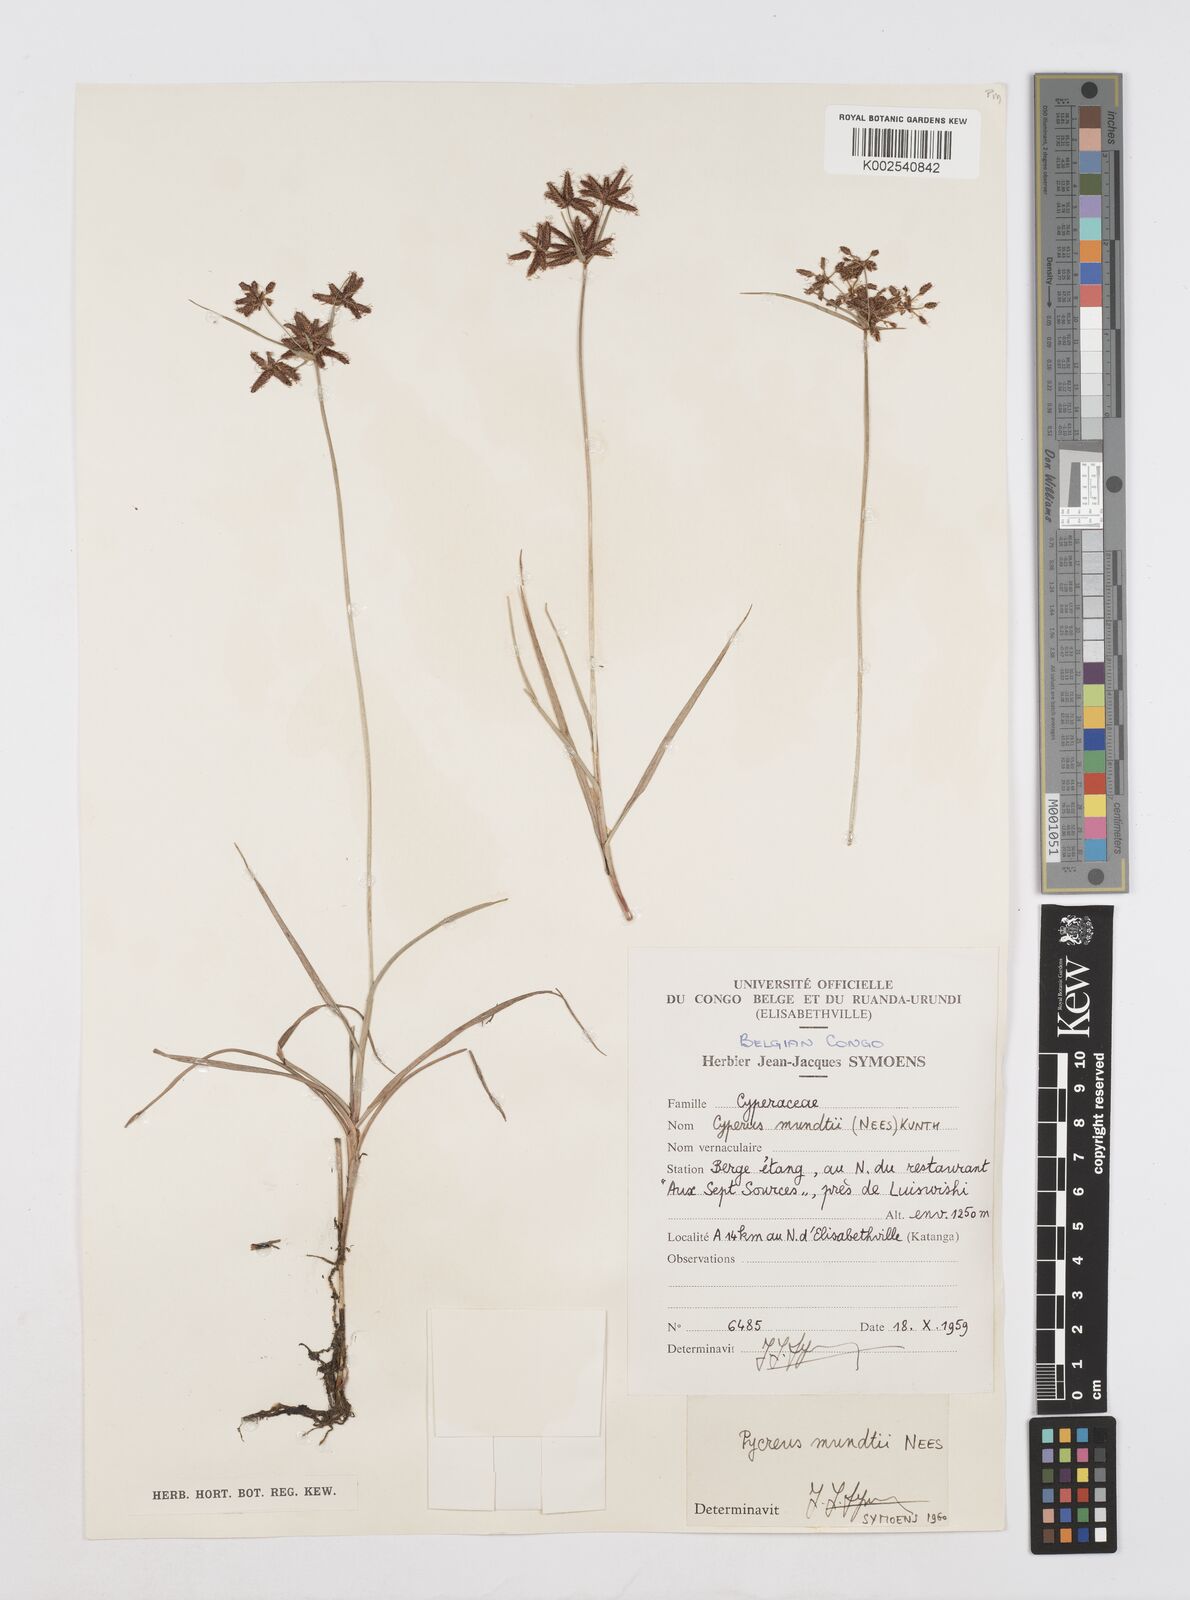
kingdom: Plantae
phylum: Tracheophyta
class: Liliopsida
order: Poales
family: Cyperaceae
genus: Cyperus
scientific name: Cyperus mundii
